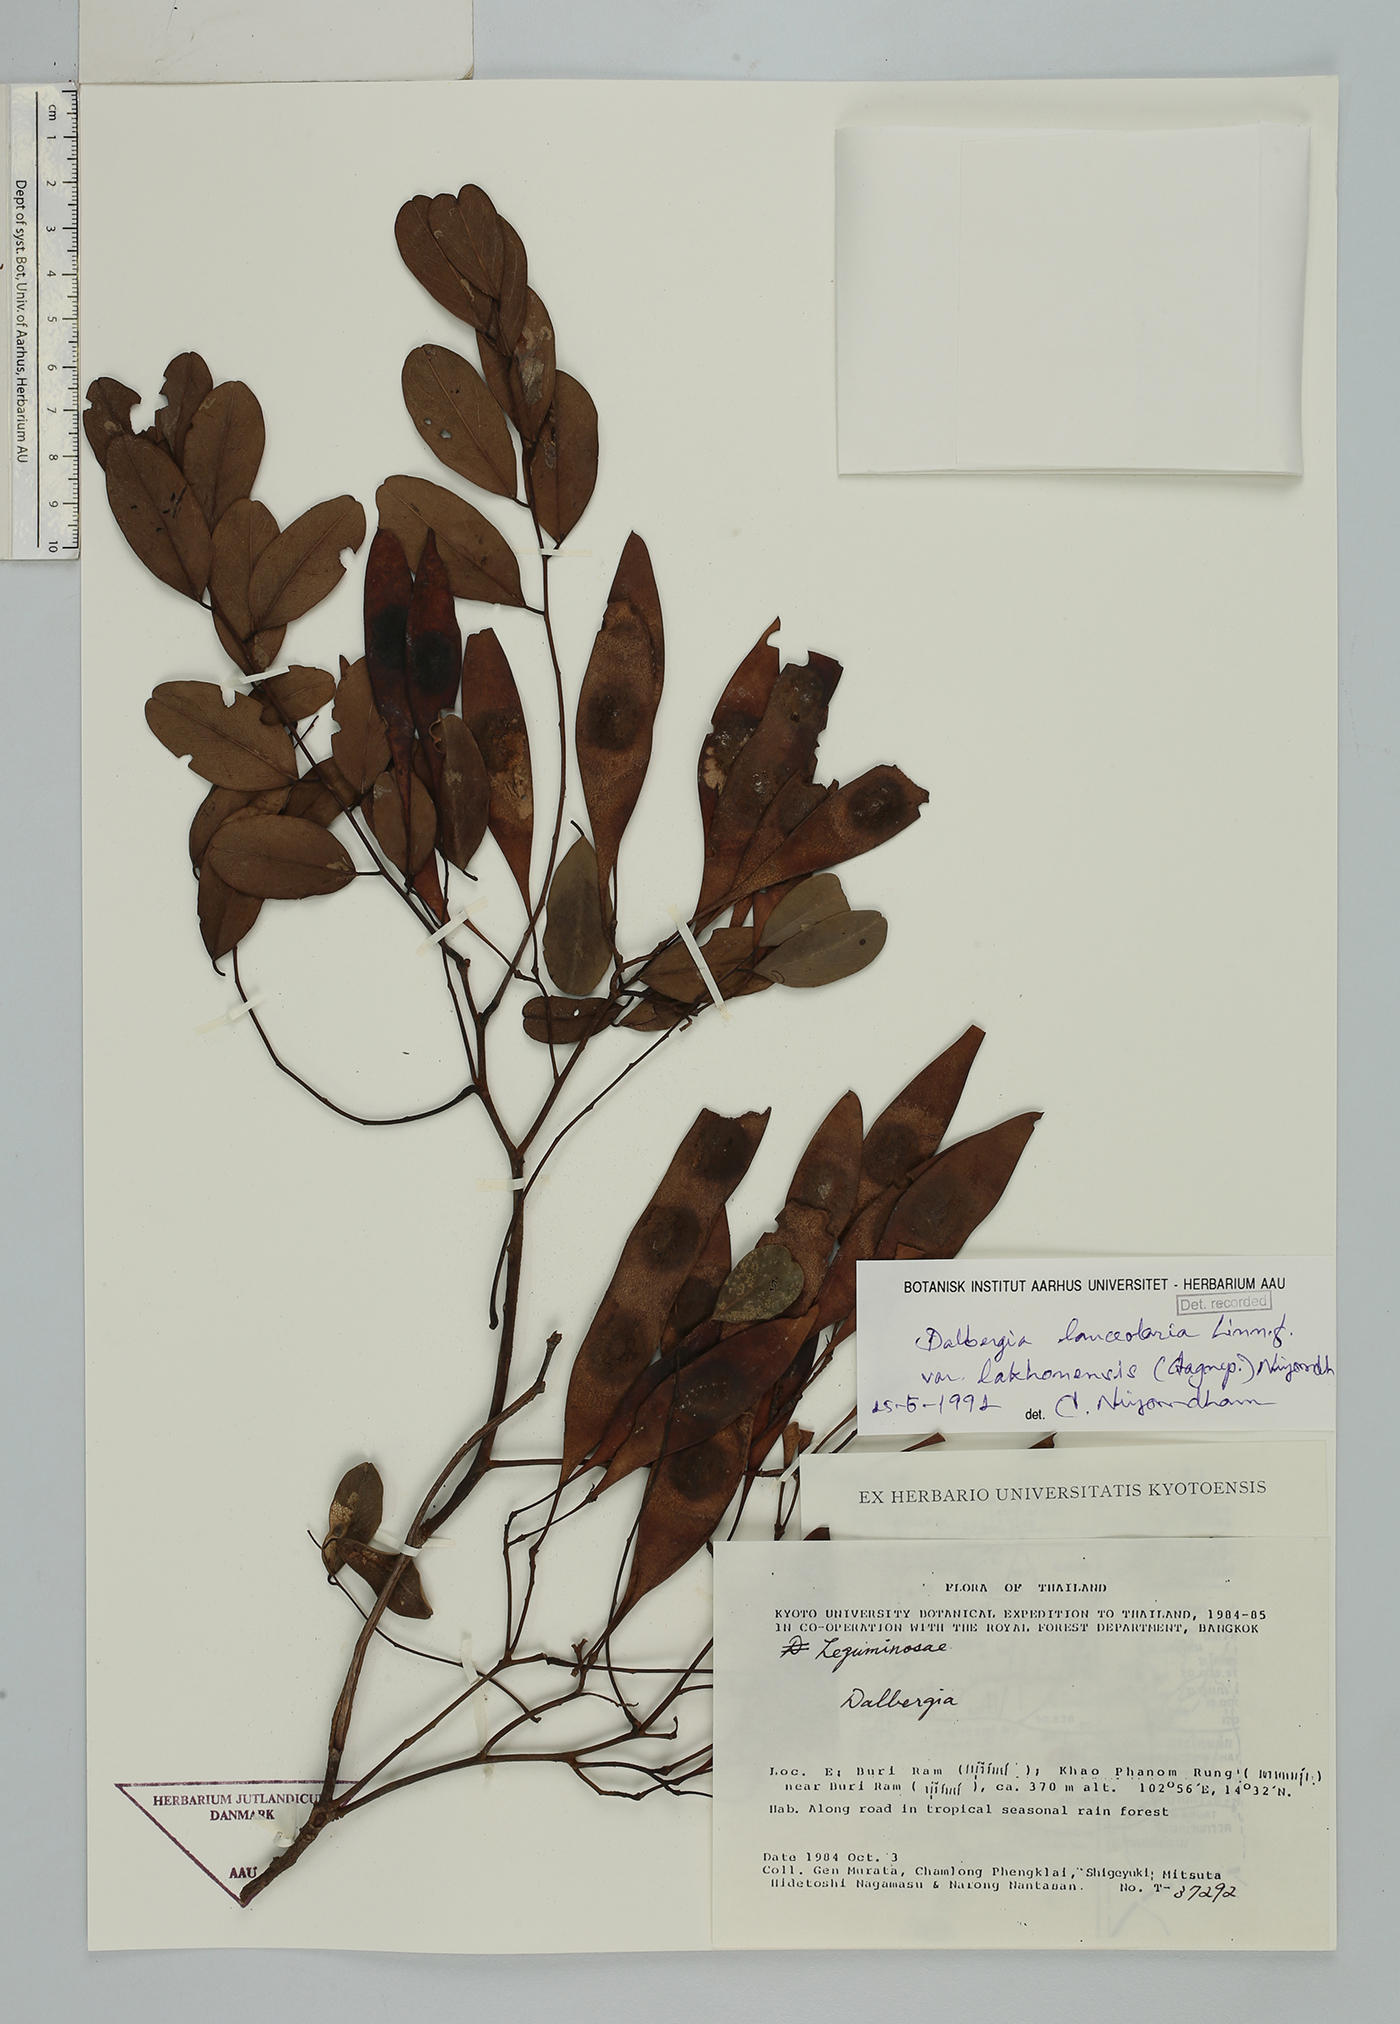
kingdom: Plantae
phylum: Tracheophyta
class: Magnoliopsida
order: Fabales
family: Fabaceae
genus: Dalbergia
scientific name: Dalbergia lanceolaria
